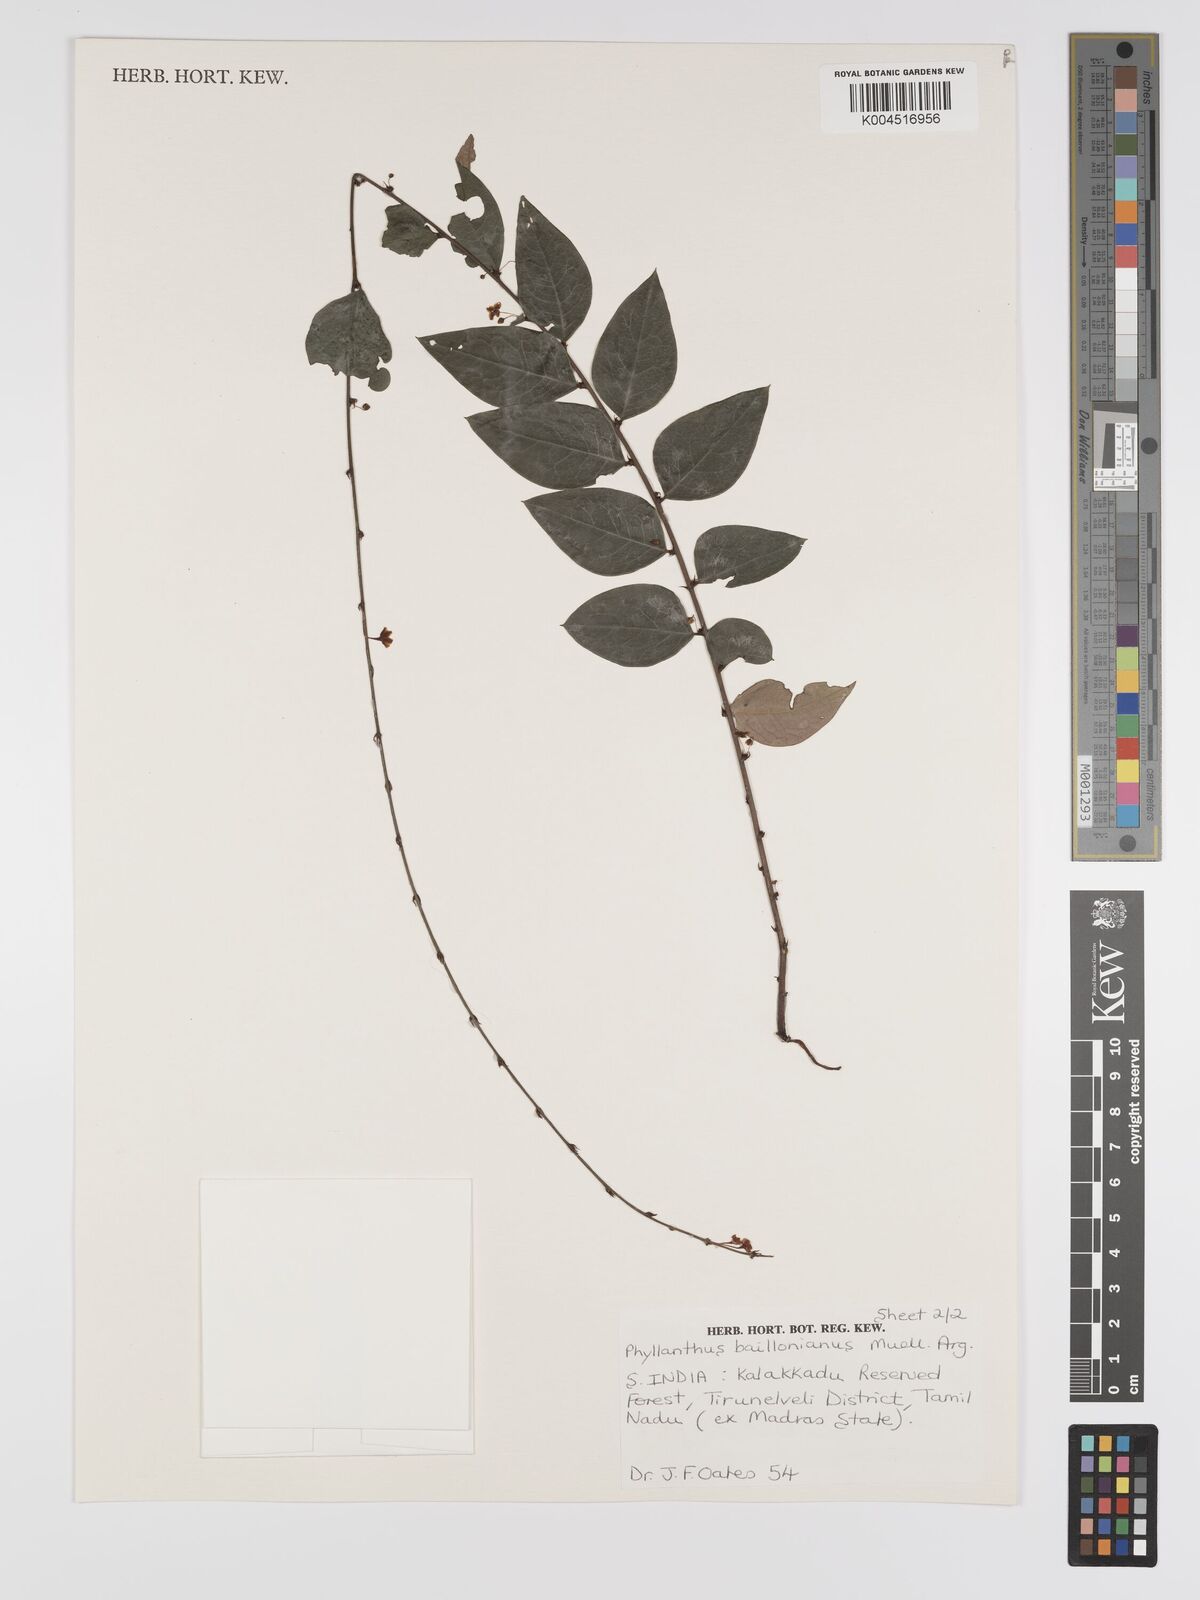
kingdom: Plantae
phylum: Tracheophyta
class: Magnoliopsida
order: Malpighiales
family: Phyllanthaceae
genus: Phyllanthus
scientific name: Phyllanthus baillonianus
